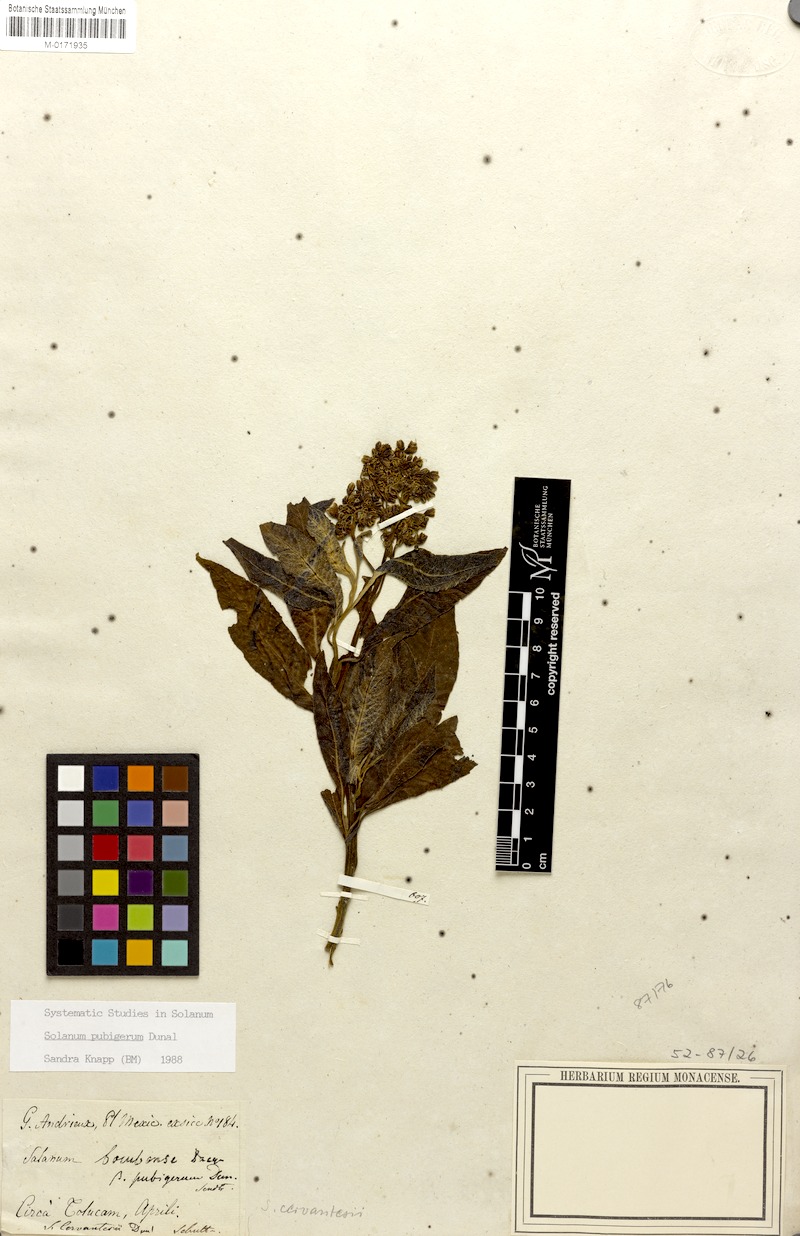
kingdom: Plantae
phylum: Tracheophyta
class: Magnoliopsida
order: Solanales
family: Solanaceae
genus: Solanum
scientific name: Solanum pubigerum
